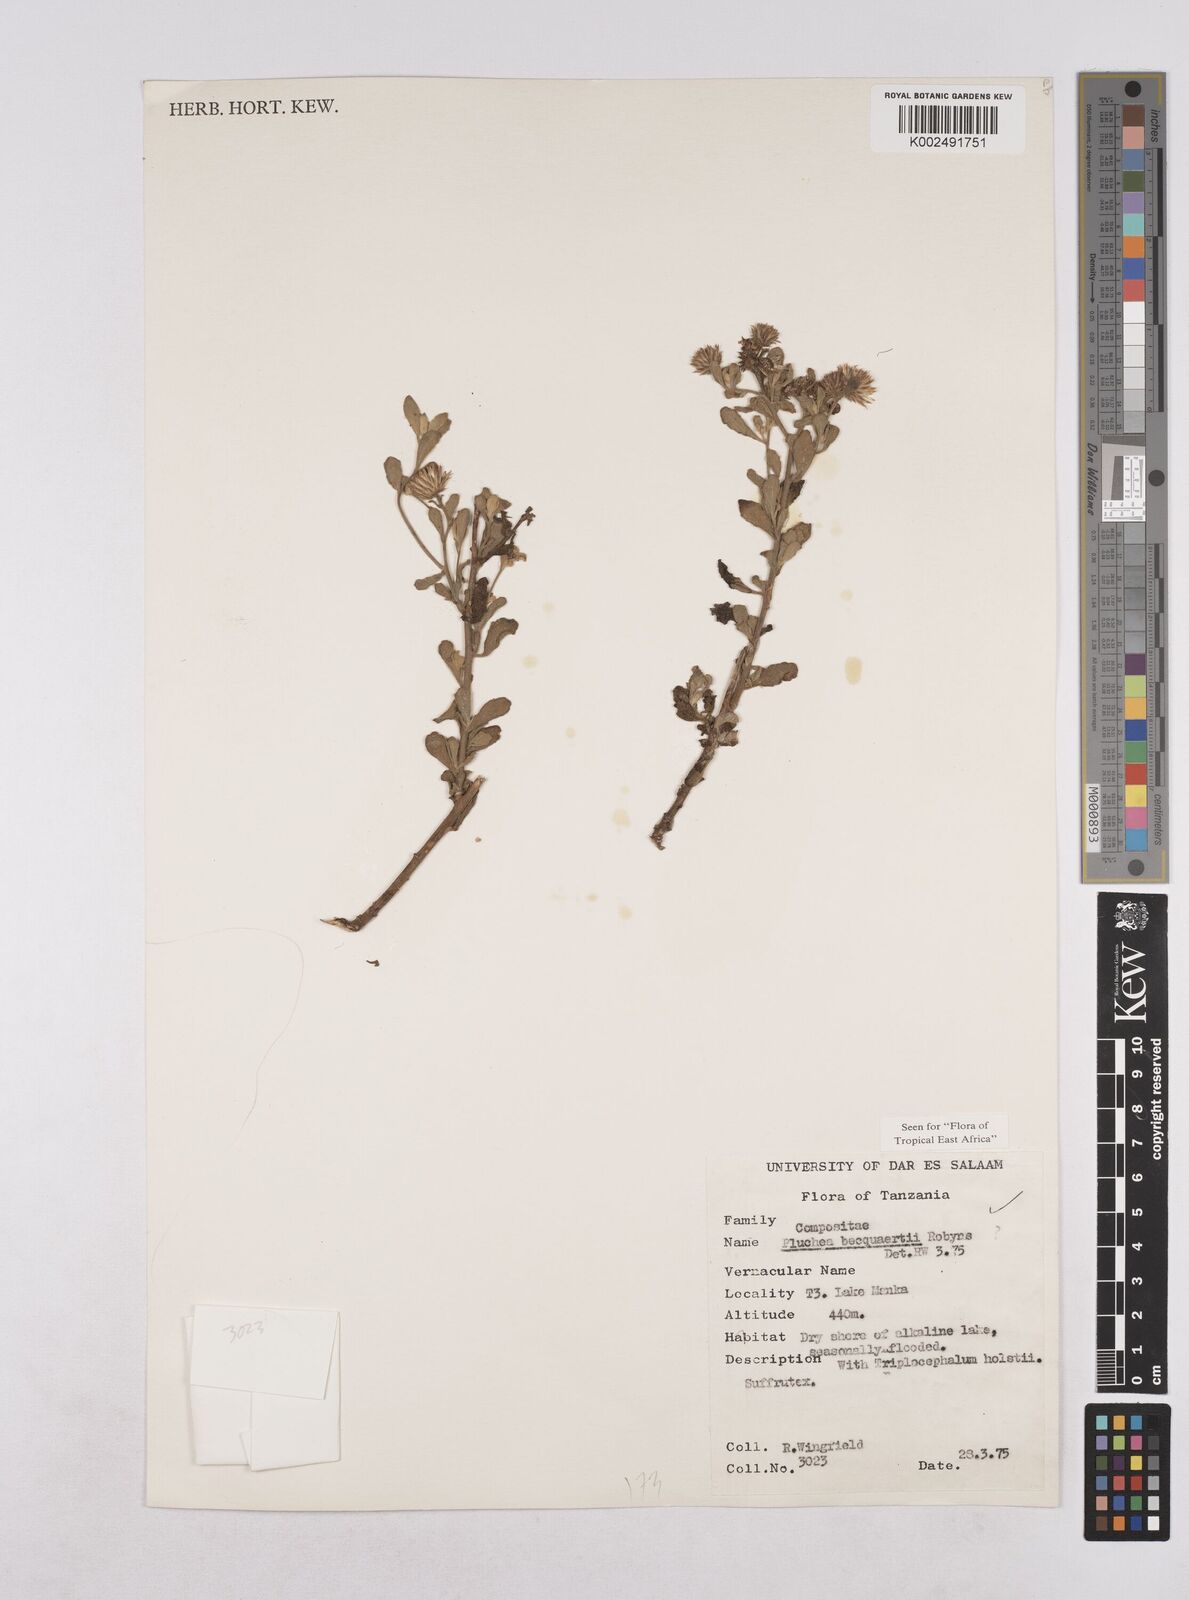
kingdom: Plantae
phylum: Tracheophyta
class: Magnoliopsida
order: Asterales
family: Asteraceae
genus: Pluchea
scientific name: Pluchea sordida
